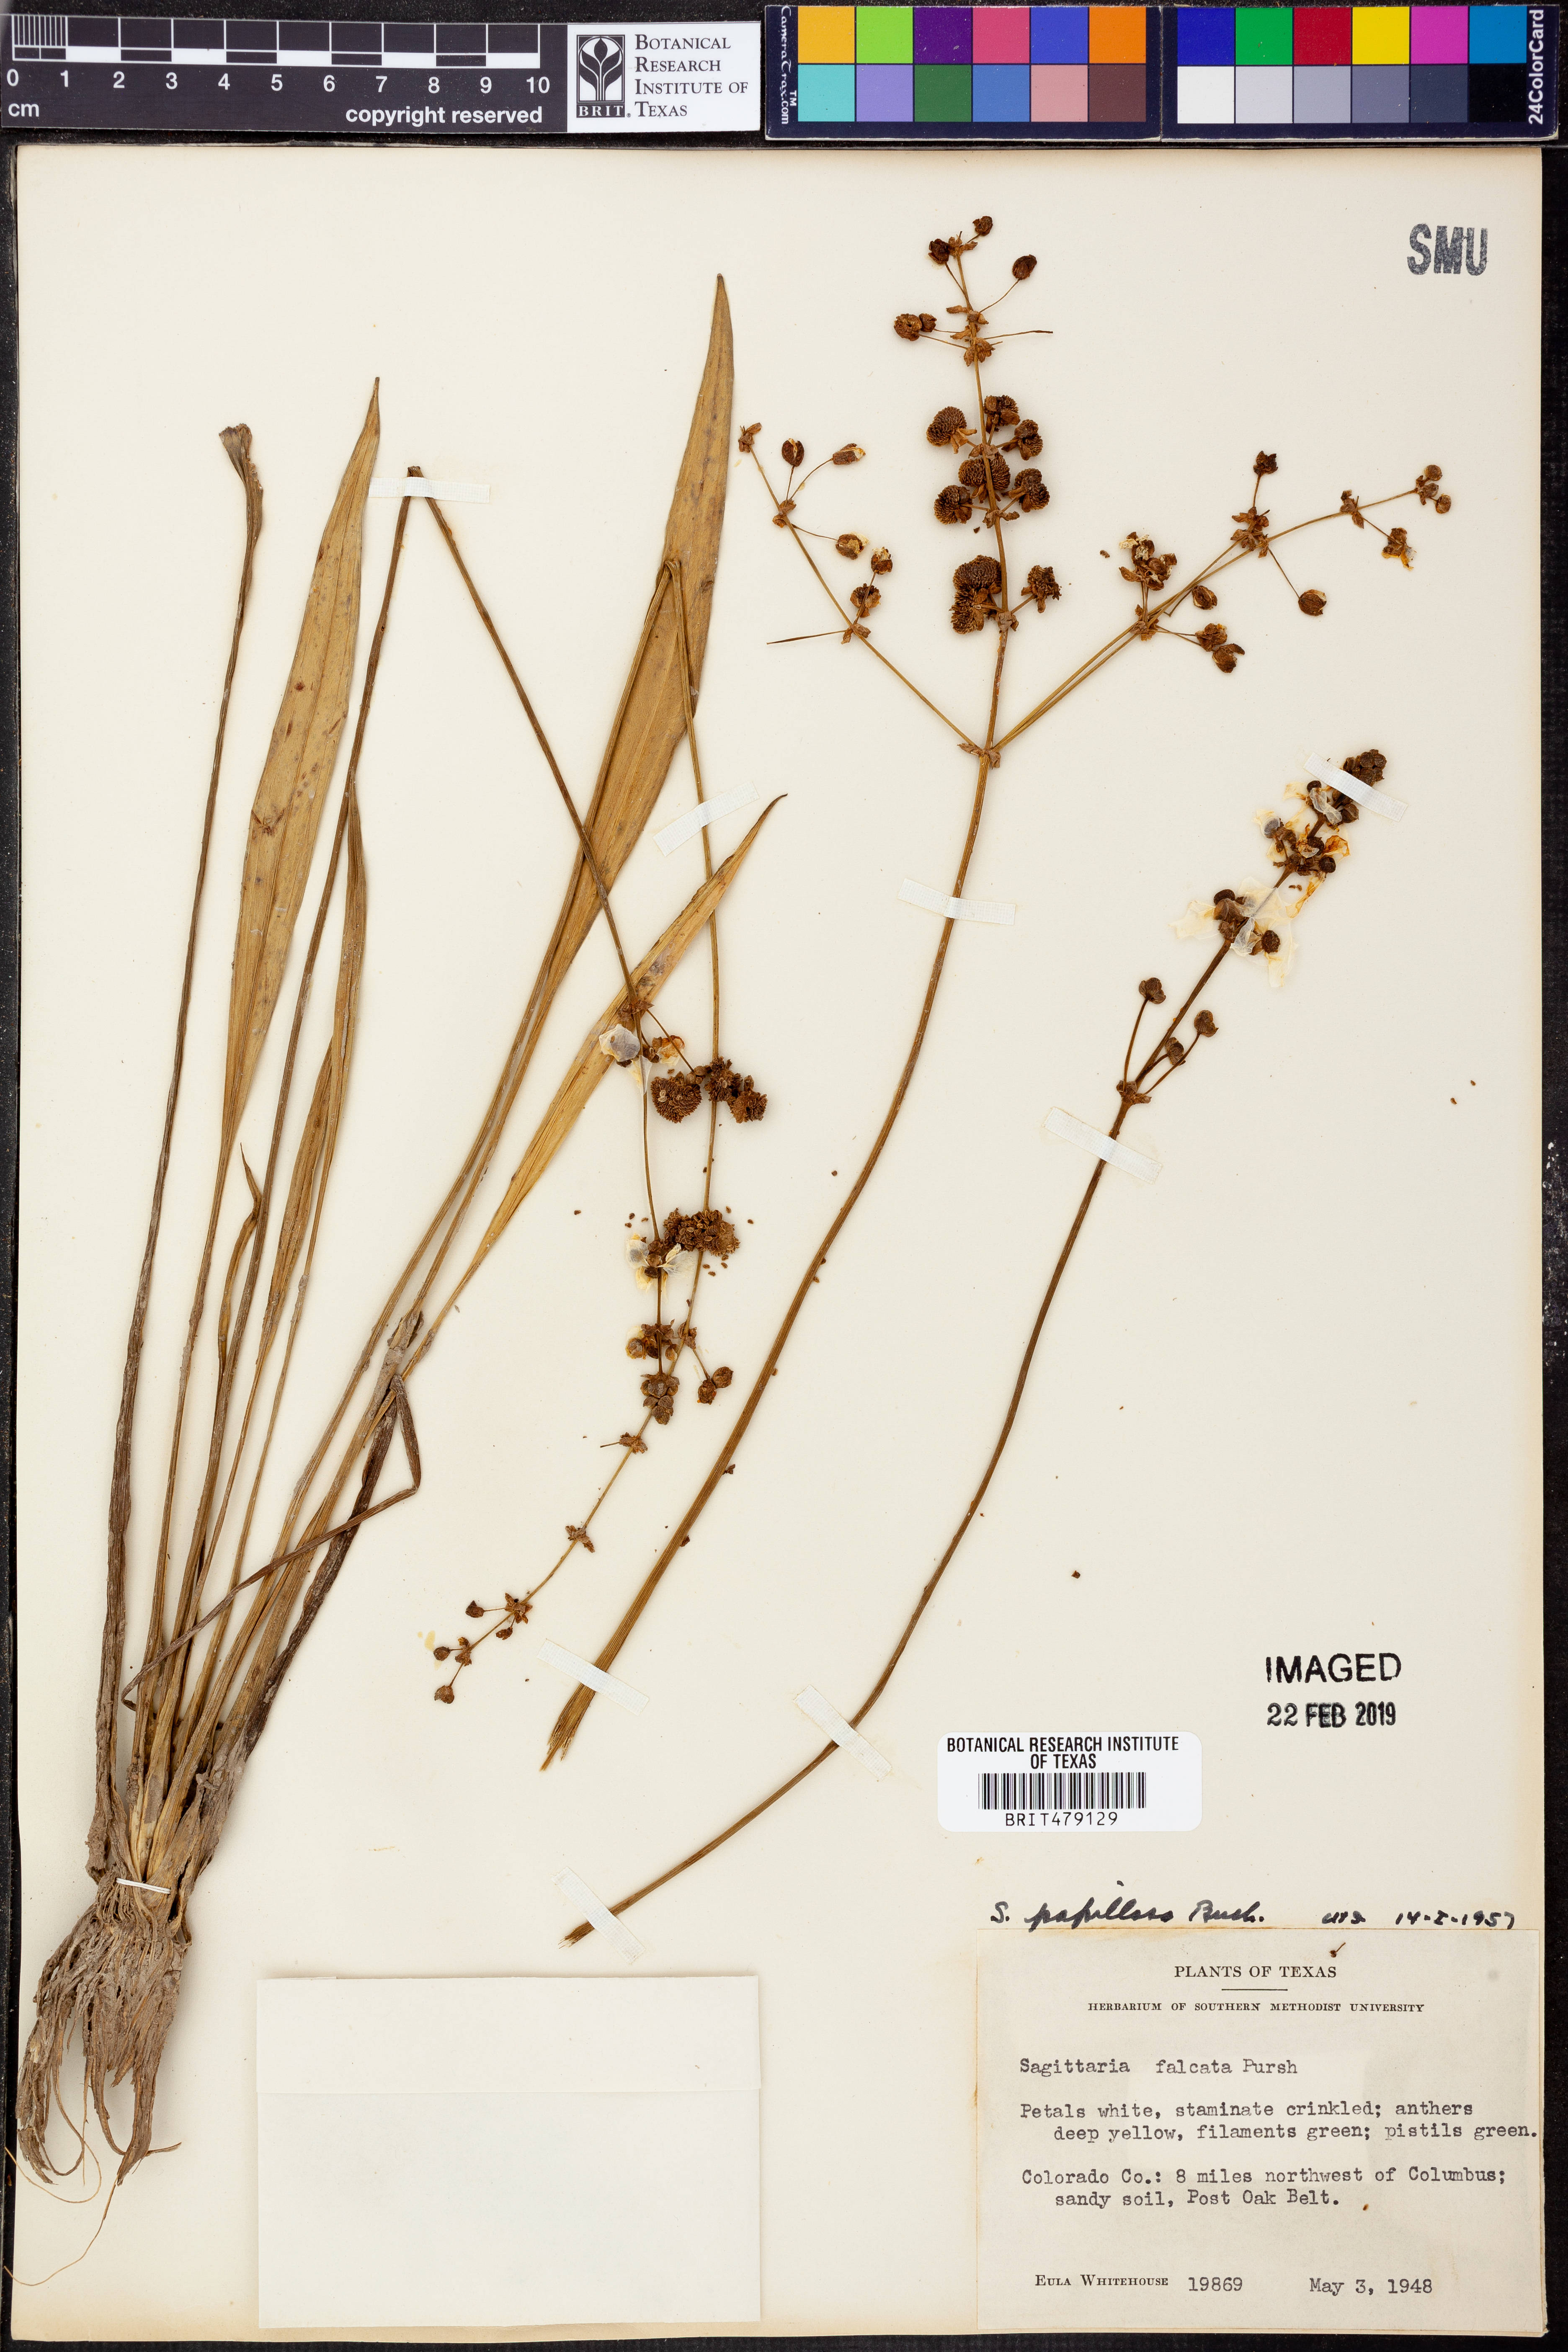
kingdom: Plantae
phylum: Tracheophyta
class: Liliopsida
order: Alismatales
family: Alismataceae
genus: Sagittaria
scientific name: Sagittaria papillosa
